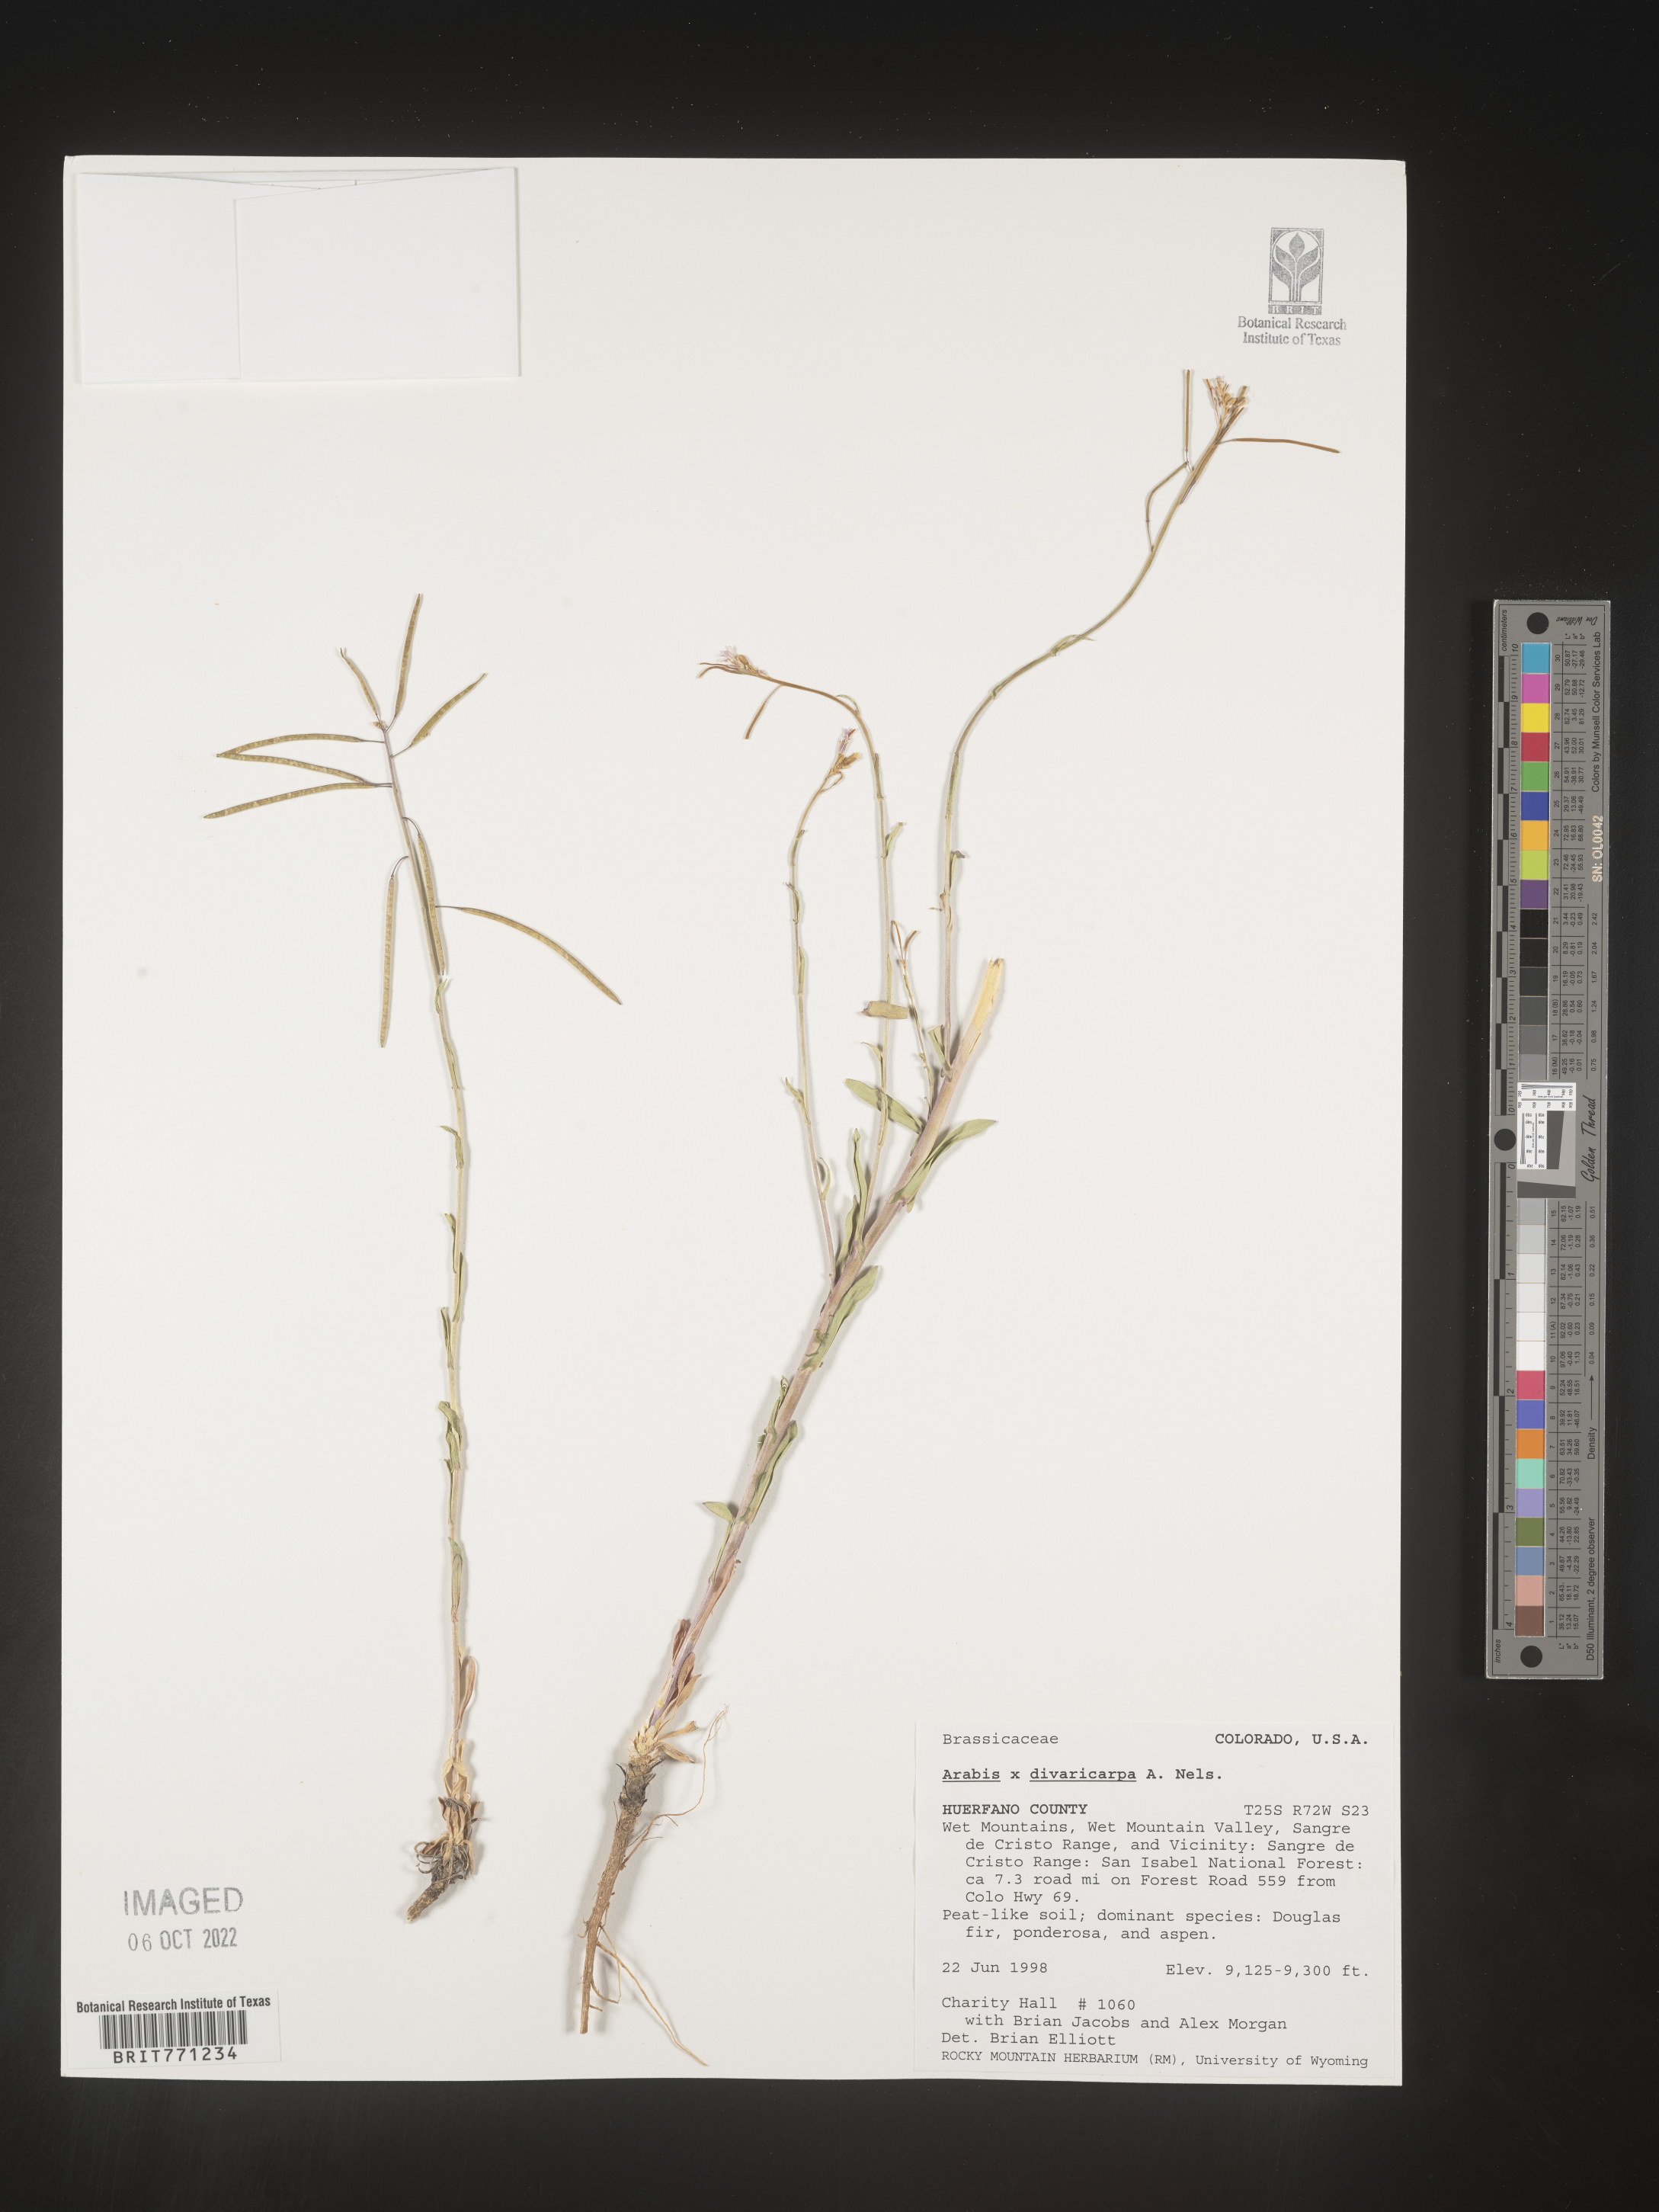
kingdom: Plantae
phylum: Tracheophyta
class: Magnoliopsida
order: Brassicales
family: Brassicaceae
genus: Boechera
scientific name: Boechera divaricarpa
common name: Divaricate rockcress
